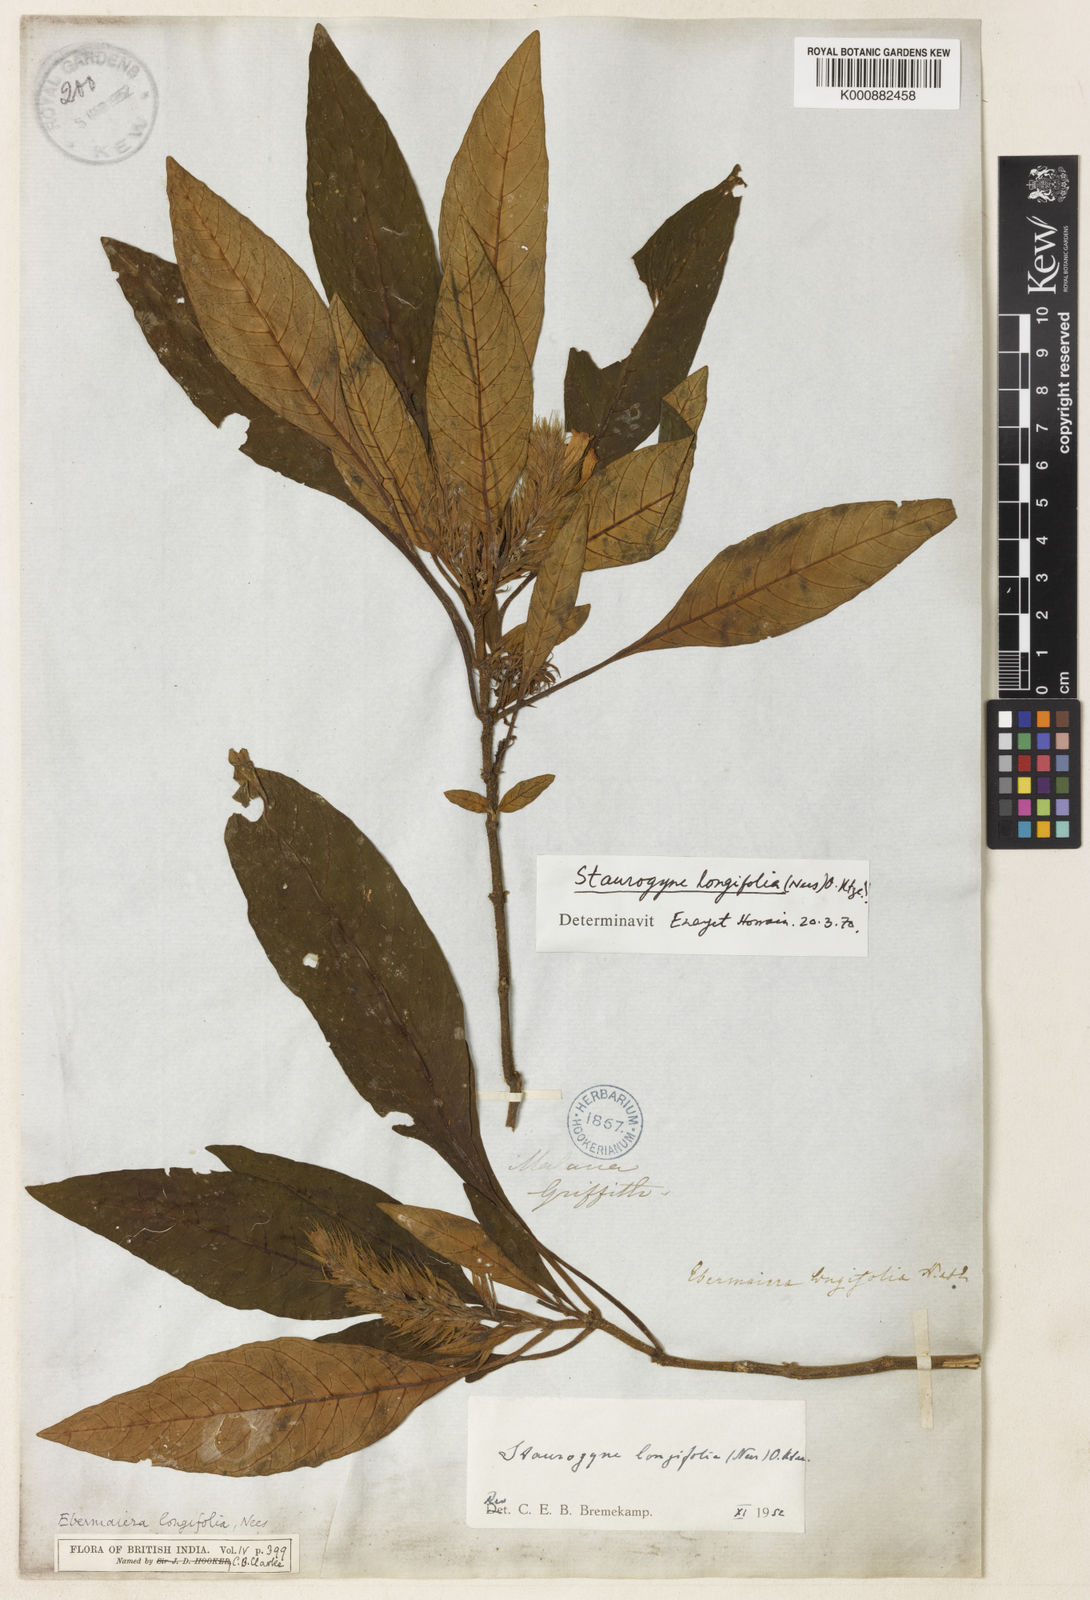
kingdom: Plantae
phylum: Tracheophyta
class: Magnoliopsida
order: Lamiales
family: Acanthaceae
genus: Staurogyne
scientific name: Staurogyne longifolia
